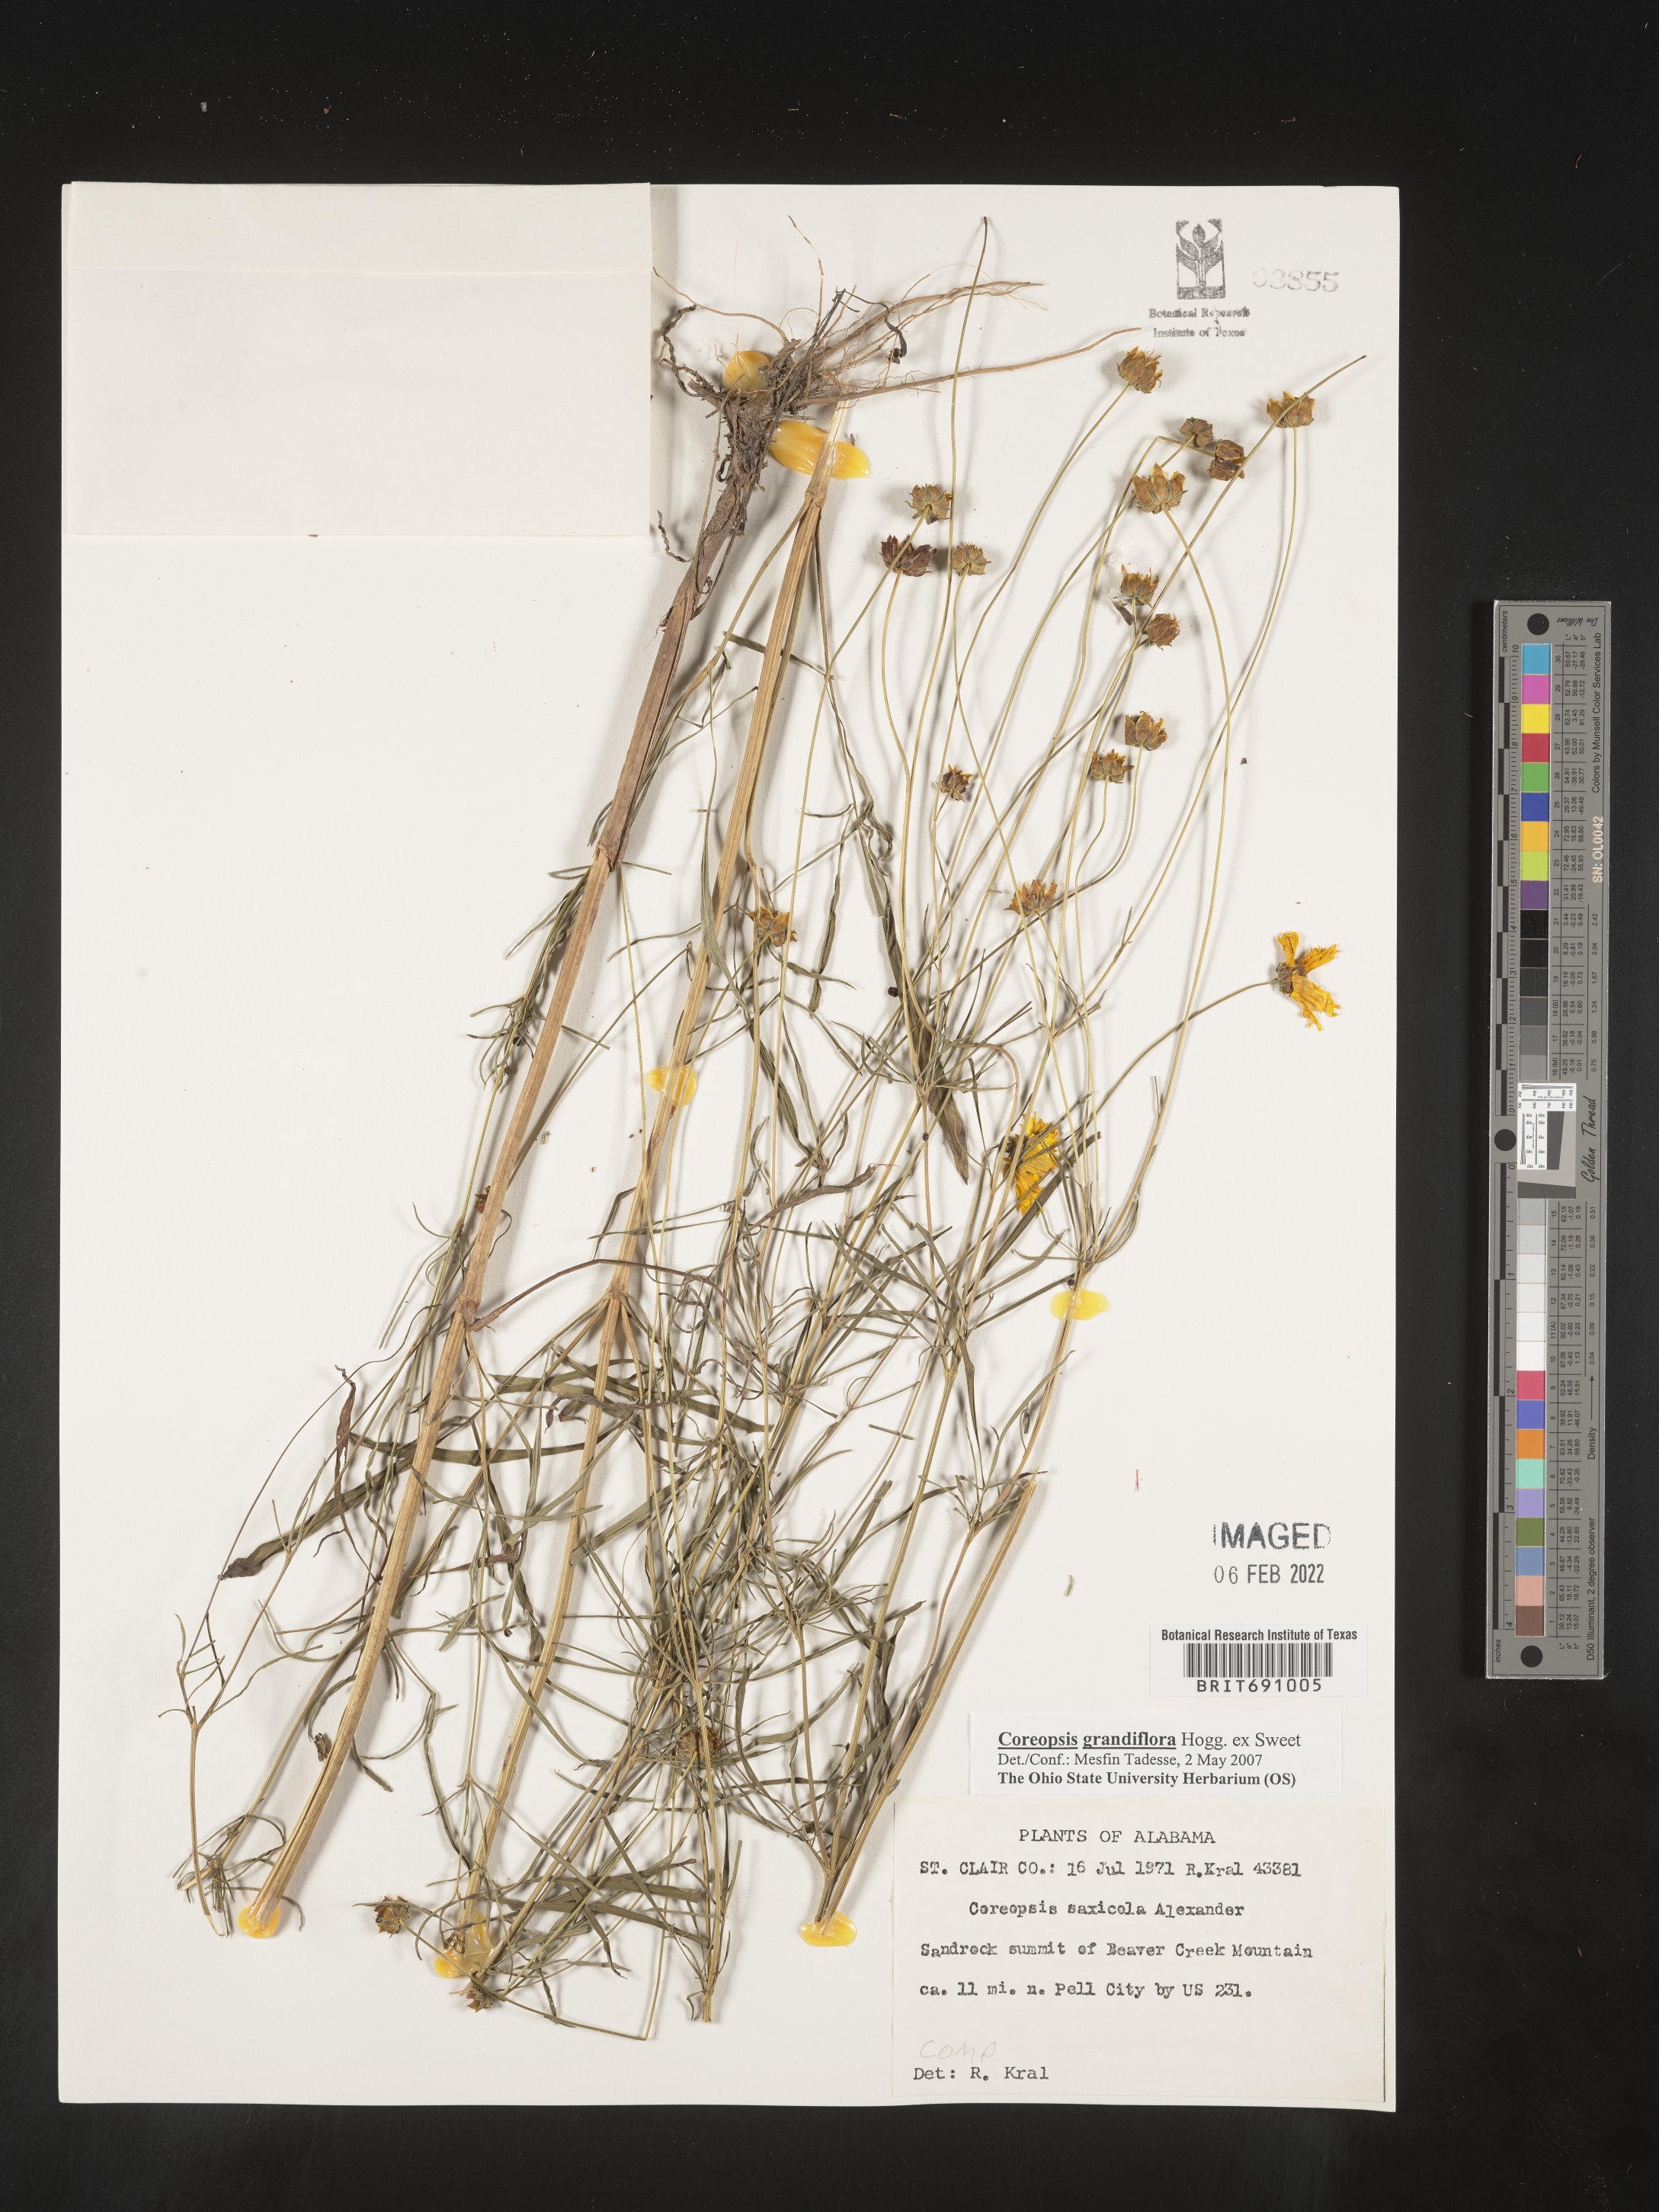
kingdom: Plantae
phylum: Tracheophyta
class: Magnoliopsida
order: Asterales
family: Asteraceae
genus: Coreopsis
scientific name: Coreopsis grandiflora
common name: Large-flowered tickseed
